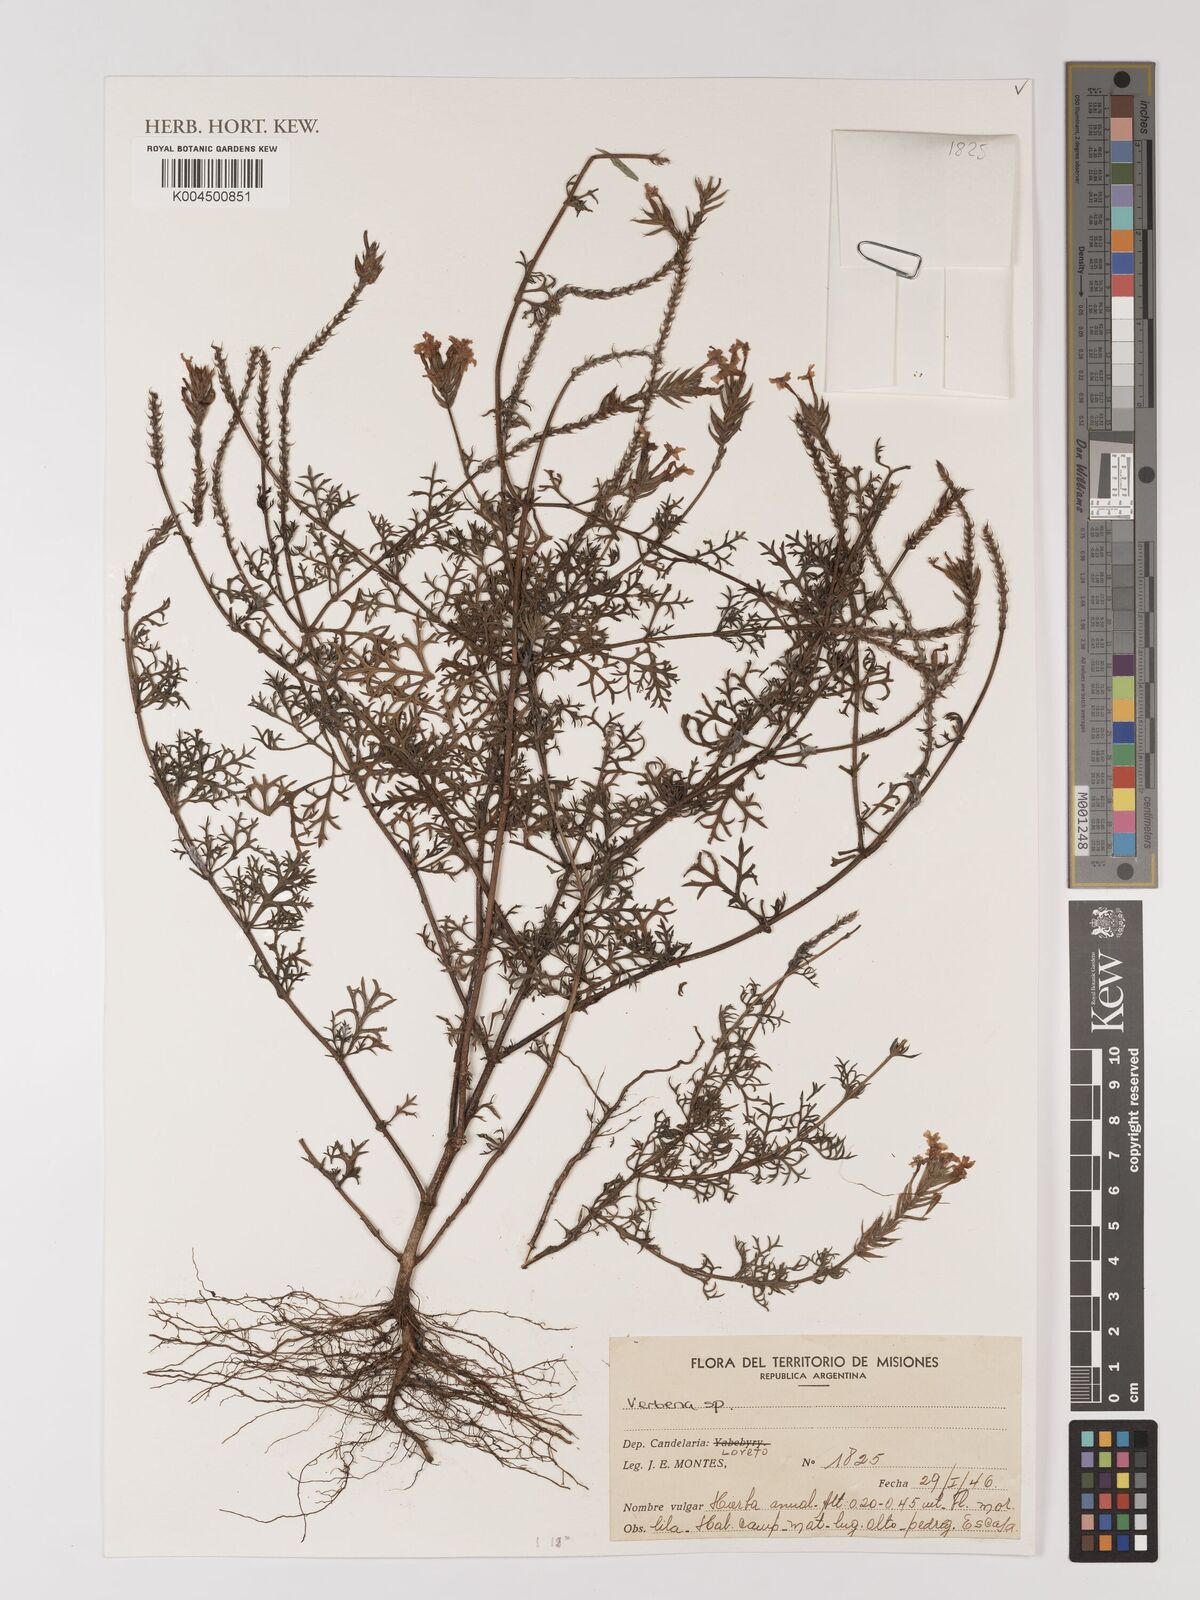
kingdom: Plantae
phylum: Tracheophyta
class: Magnoliopsida
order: Lamiales
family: Verbenaceae
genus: Verbena
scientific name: Verbena
